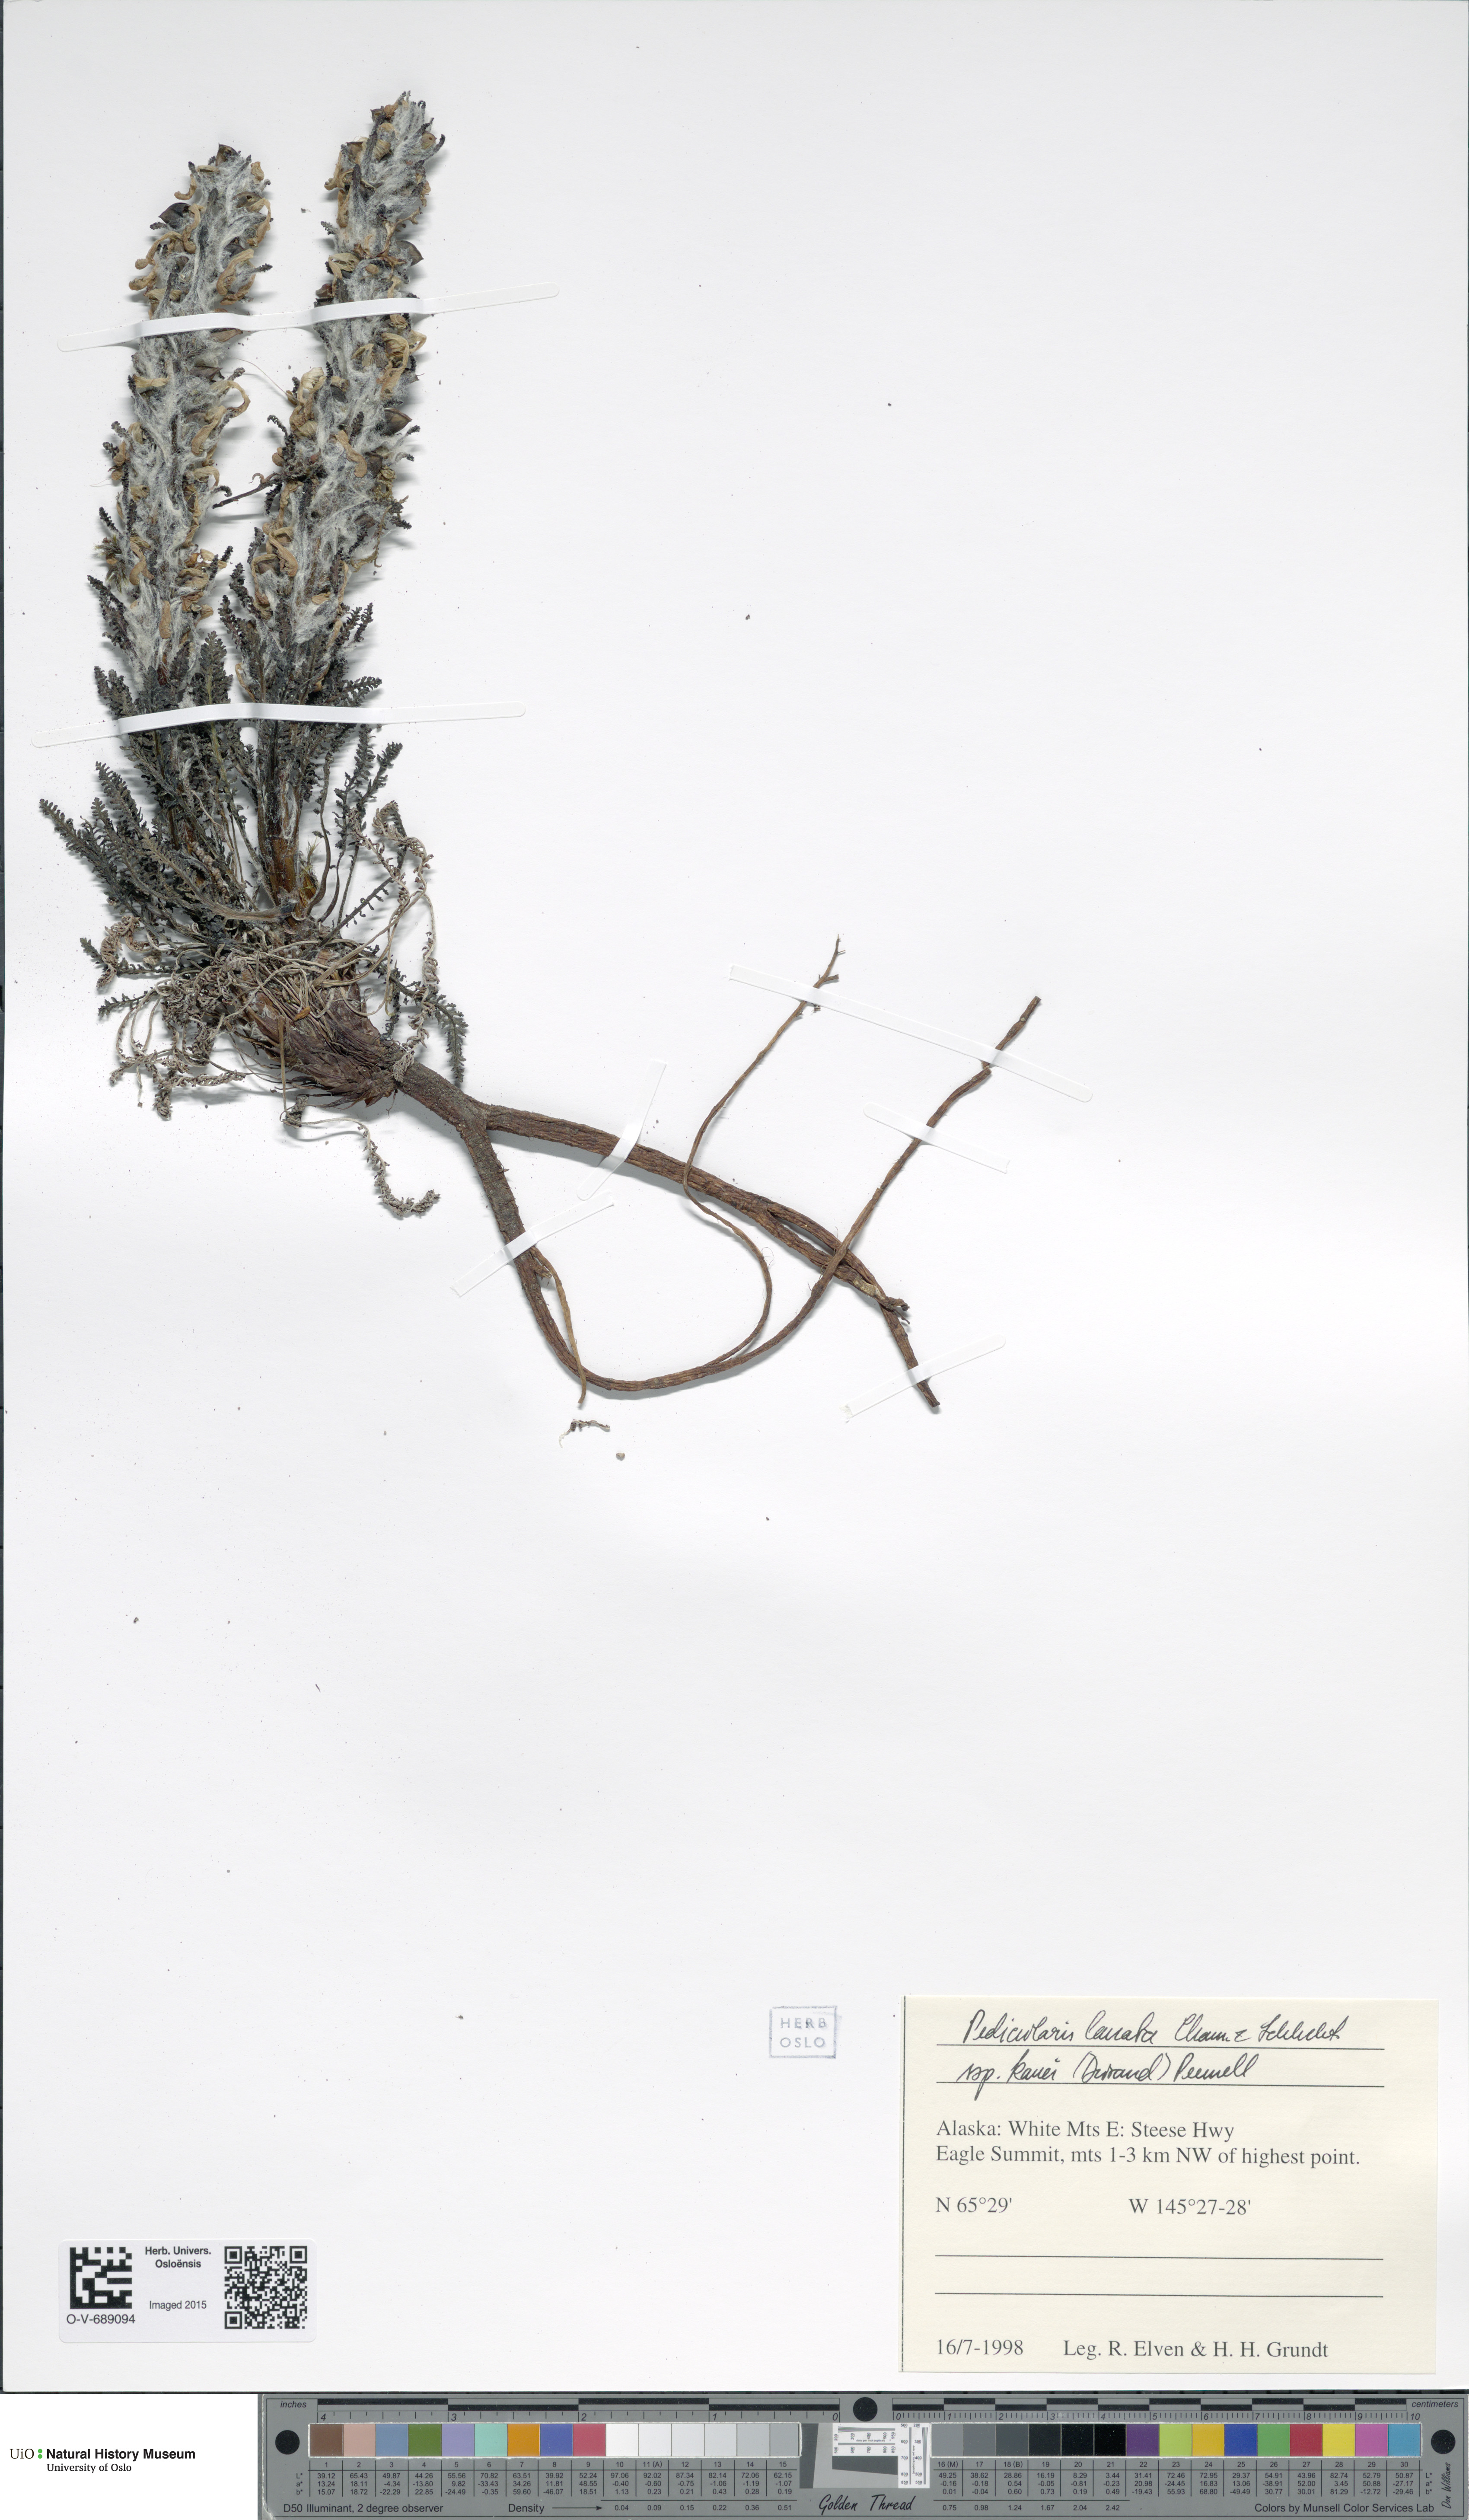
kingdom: Plantae
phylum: Tracheophyta
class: Magnoliopsida
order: Lamiales
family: Orobanchaceae
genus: Pedicularis
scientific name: Pedicularis lanata
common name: Woolly lousewort
